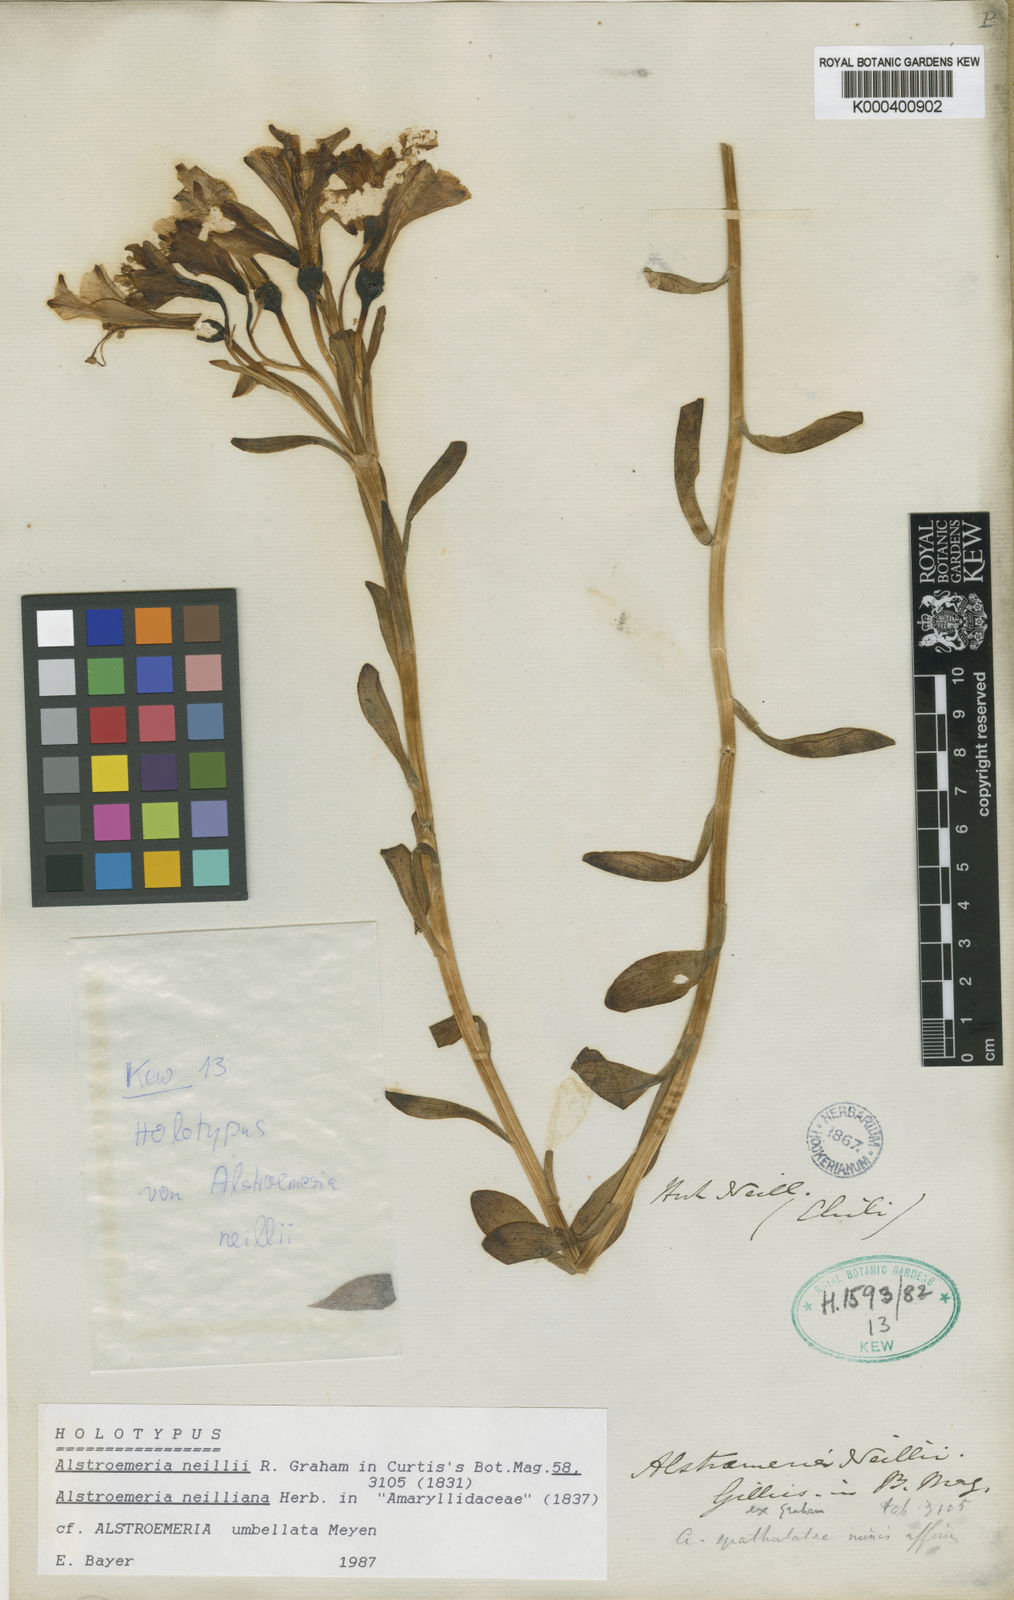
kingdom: Plantae
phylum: Tracheophyta
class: Liliopsida
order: Liliales
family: Alstroemeriaceae
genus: Alstroemeria
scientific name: Alstroemeria umbellata
